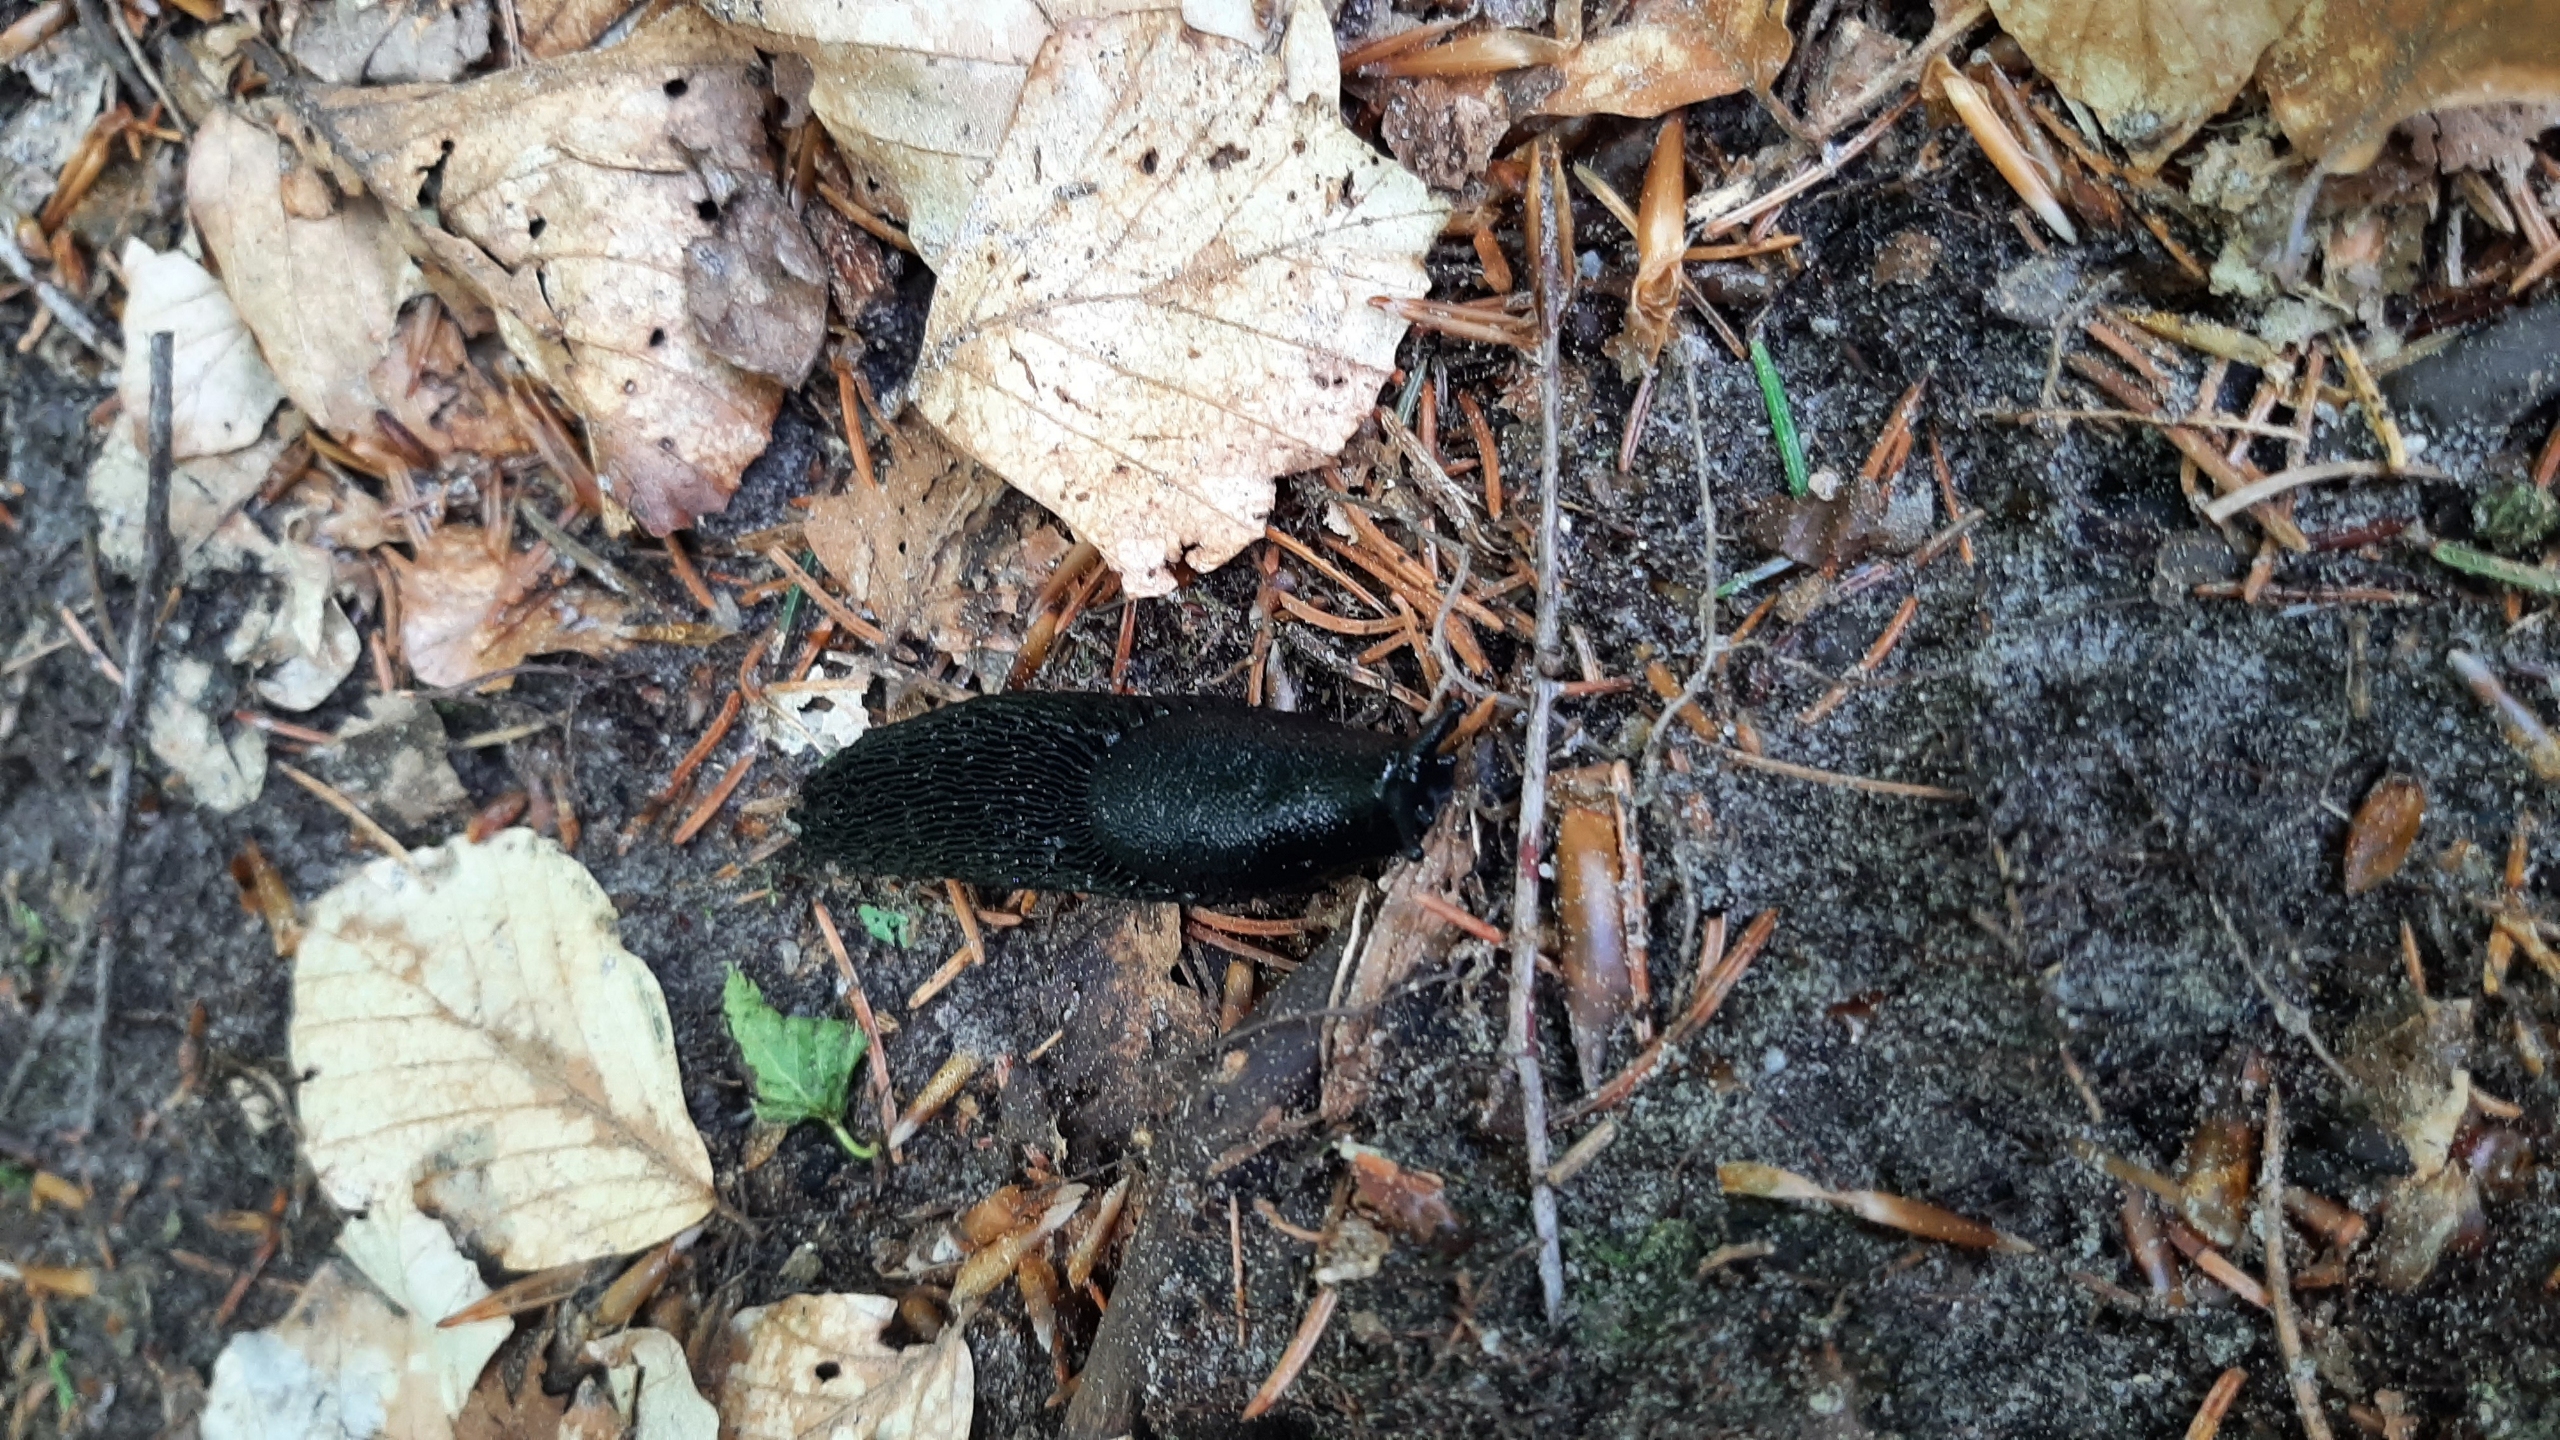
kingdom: Animalia
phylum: Mollusca
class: Gastropoda
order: Stylommatophora
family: Arionidae
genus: Arion
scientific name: Arion ater
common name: Sort skovsnegl
